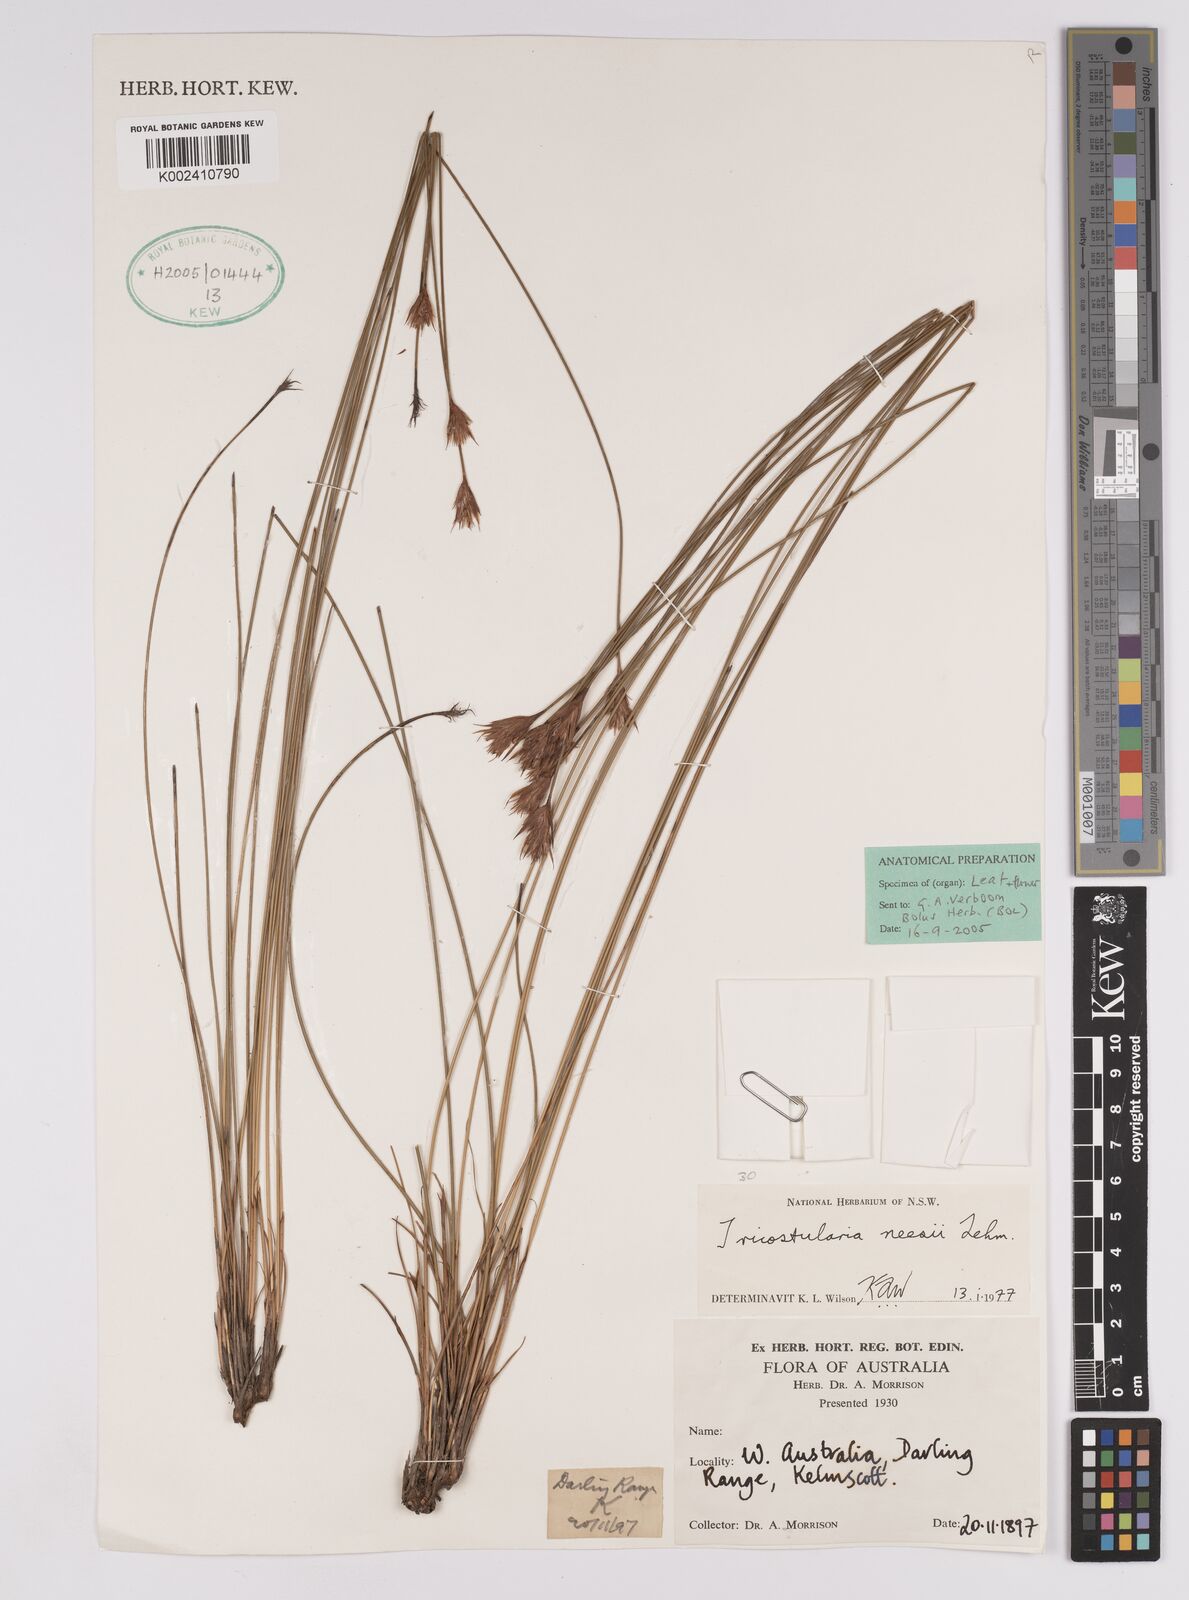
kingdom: Plantae
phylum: Tracheophyta
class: Liliopsida
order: Poales
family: Cyperaceae
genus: Tricostularia
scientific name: Tricostularia neesii
